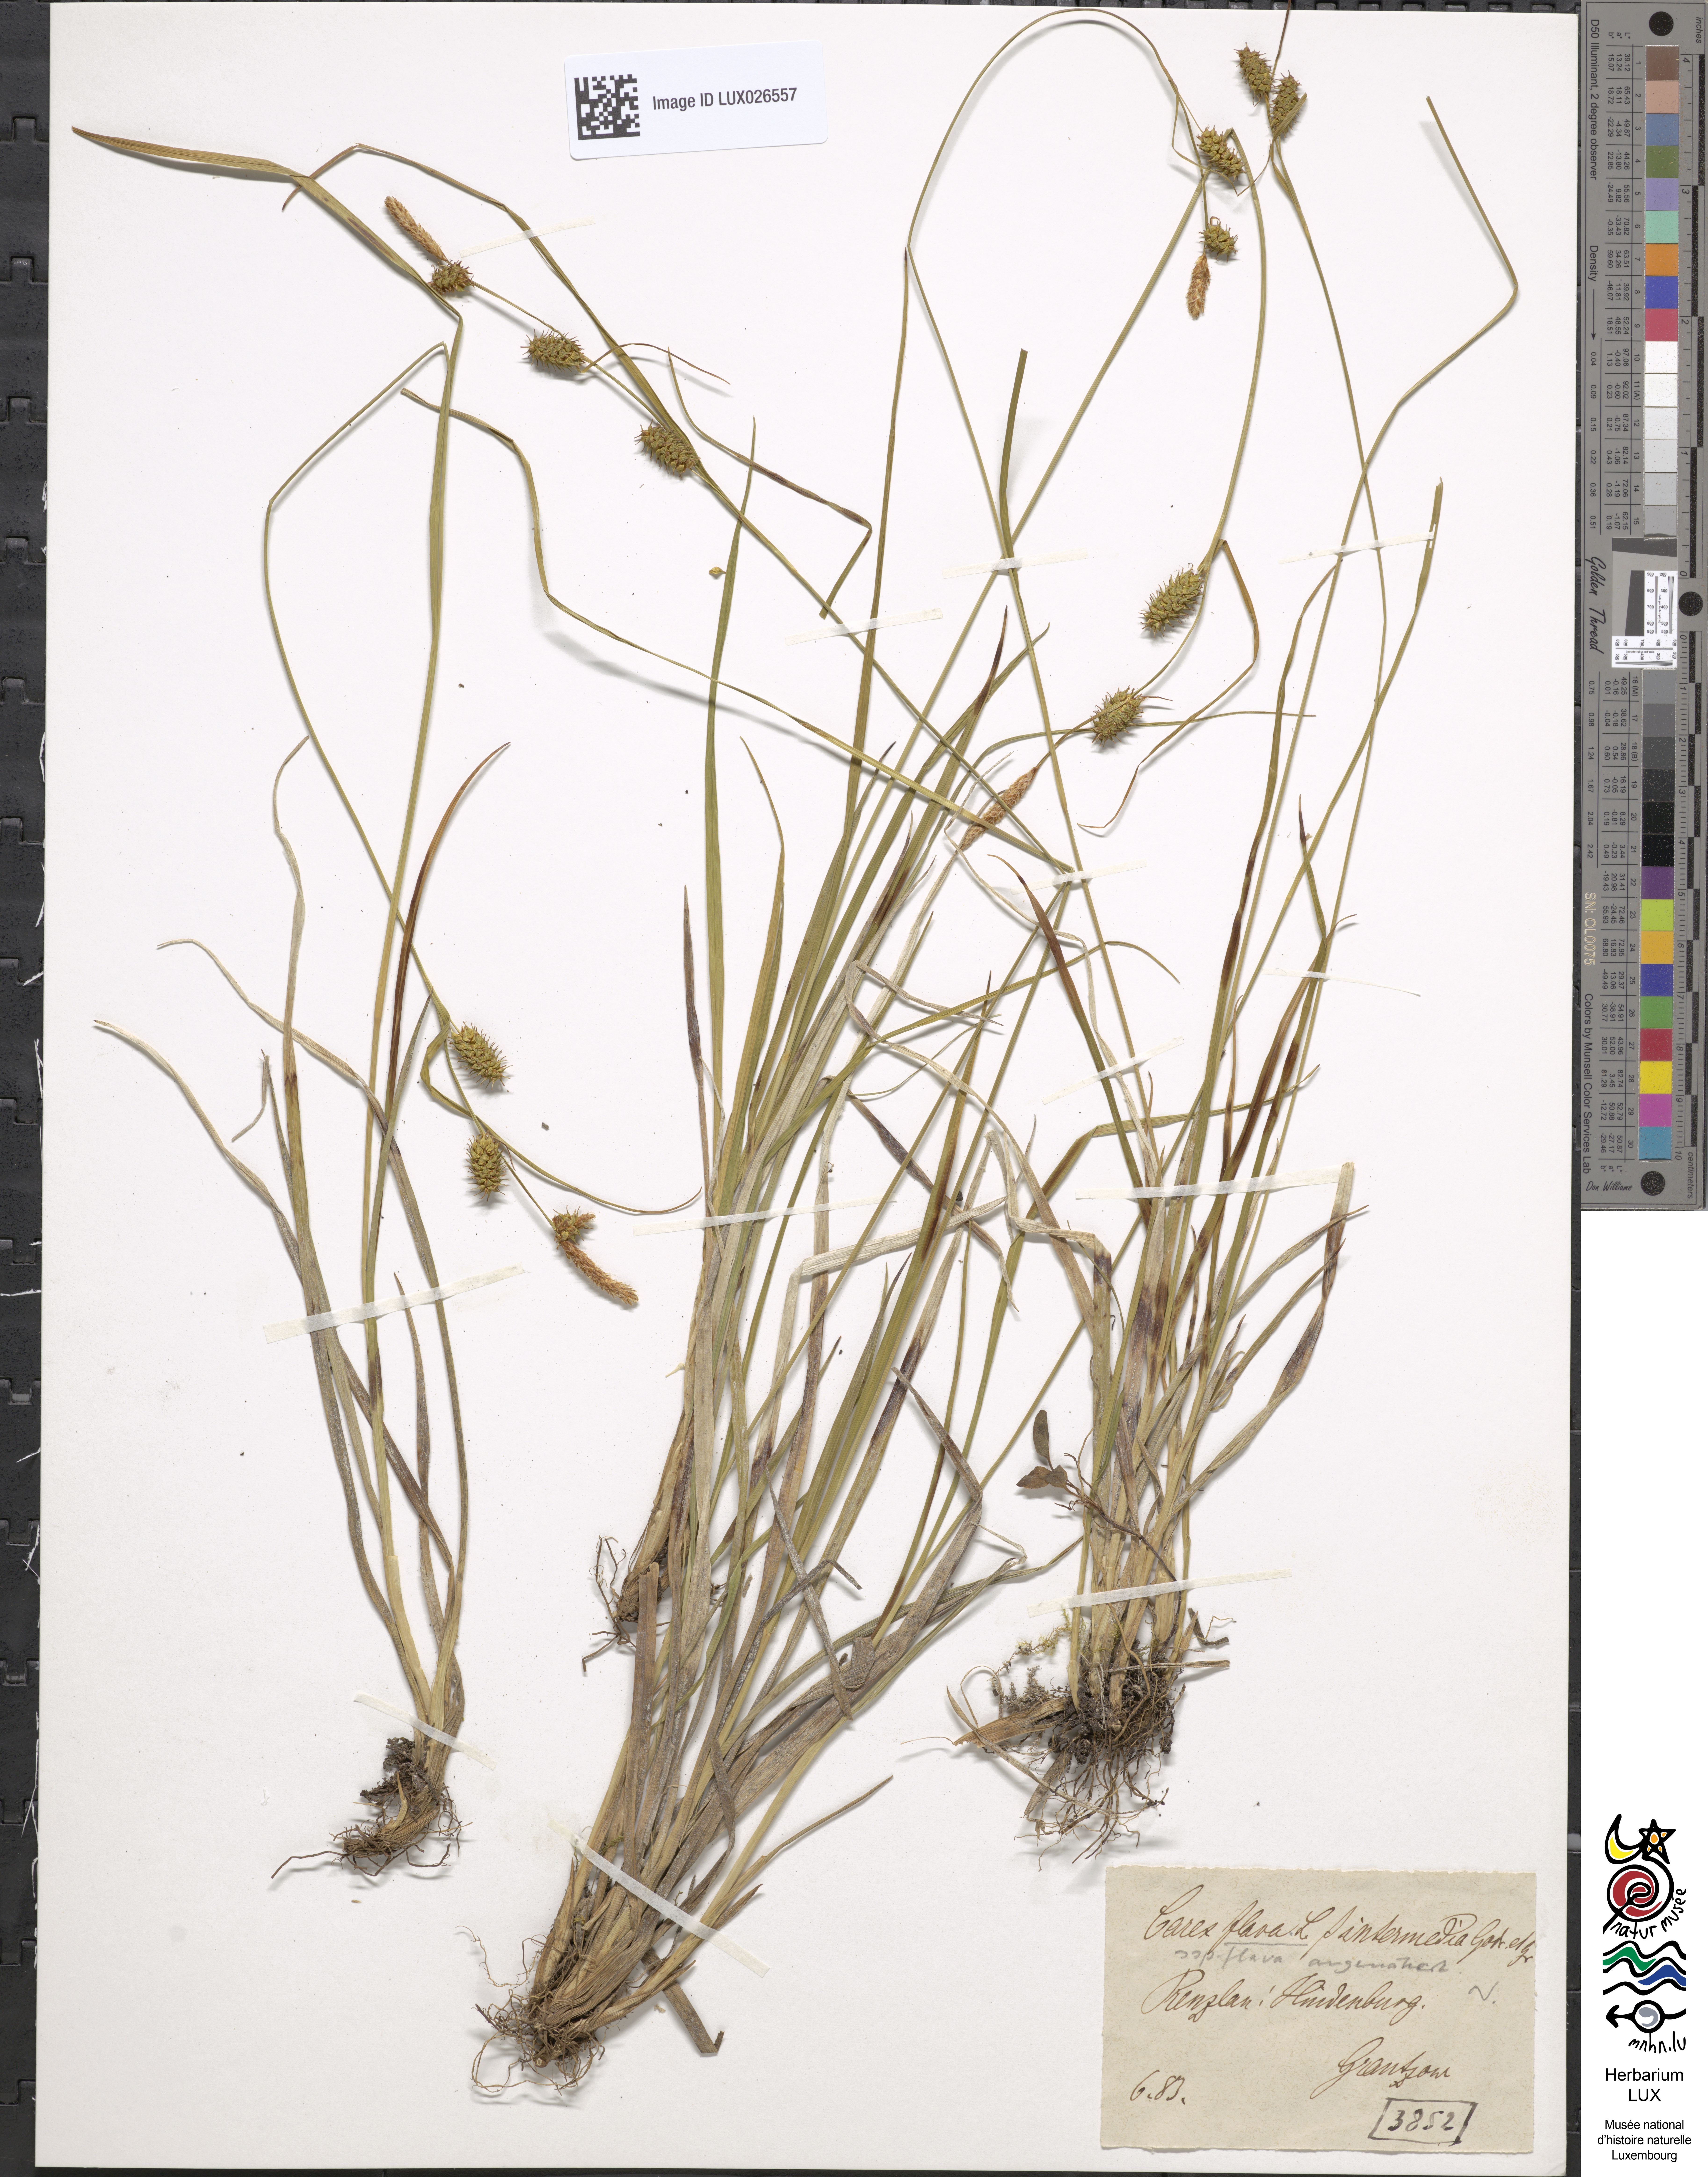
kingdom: Plantae
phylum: Tracheophyta
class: Liliopsida
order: Poales
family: Cyperaceae
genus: Carex
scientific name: Carex flava
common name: Large yellow-sedge
